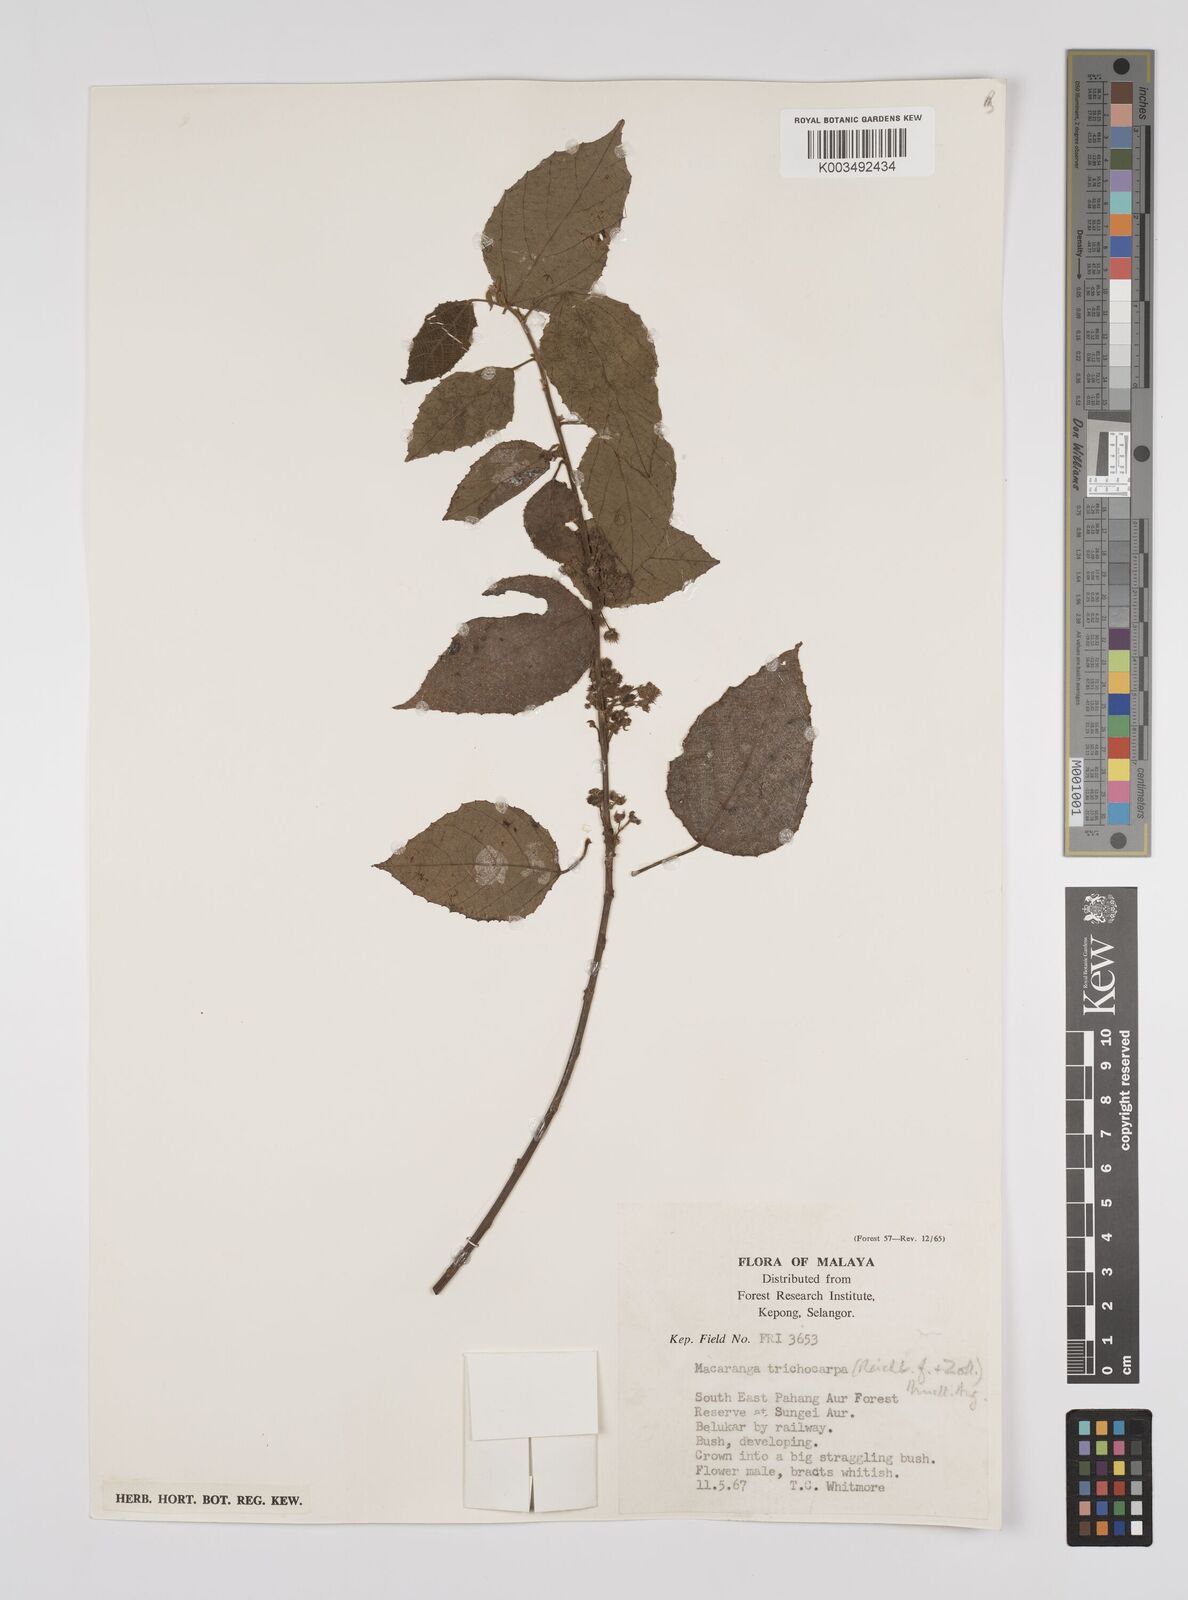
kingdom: Plantae
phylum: Tracheophyta
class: Magnoliopsida
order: Malpighiales
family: Euphorbiaceae
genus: Macaranga
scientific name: Macaranga trichocarpa
